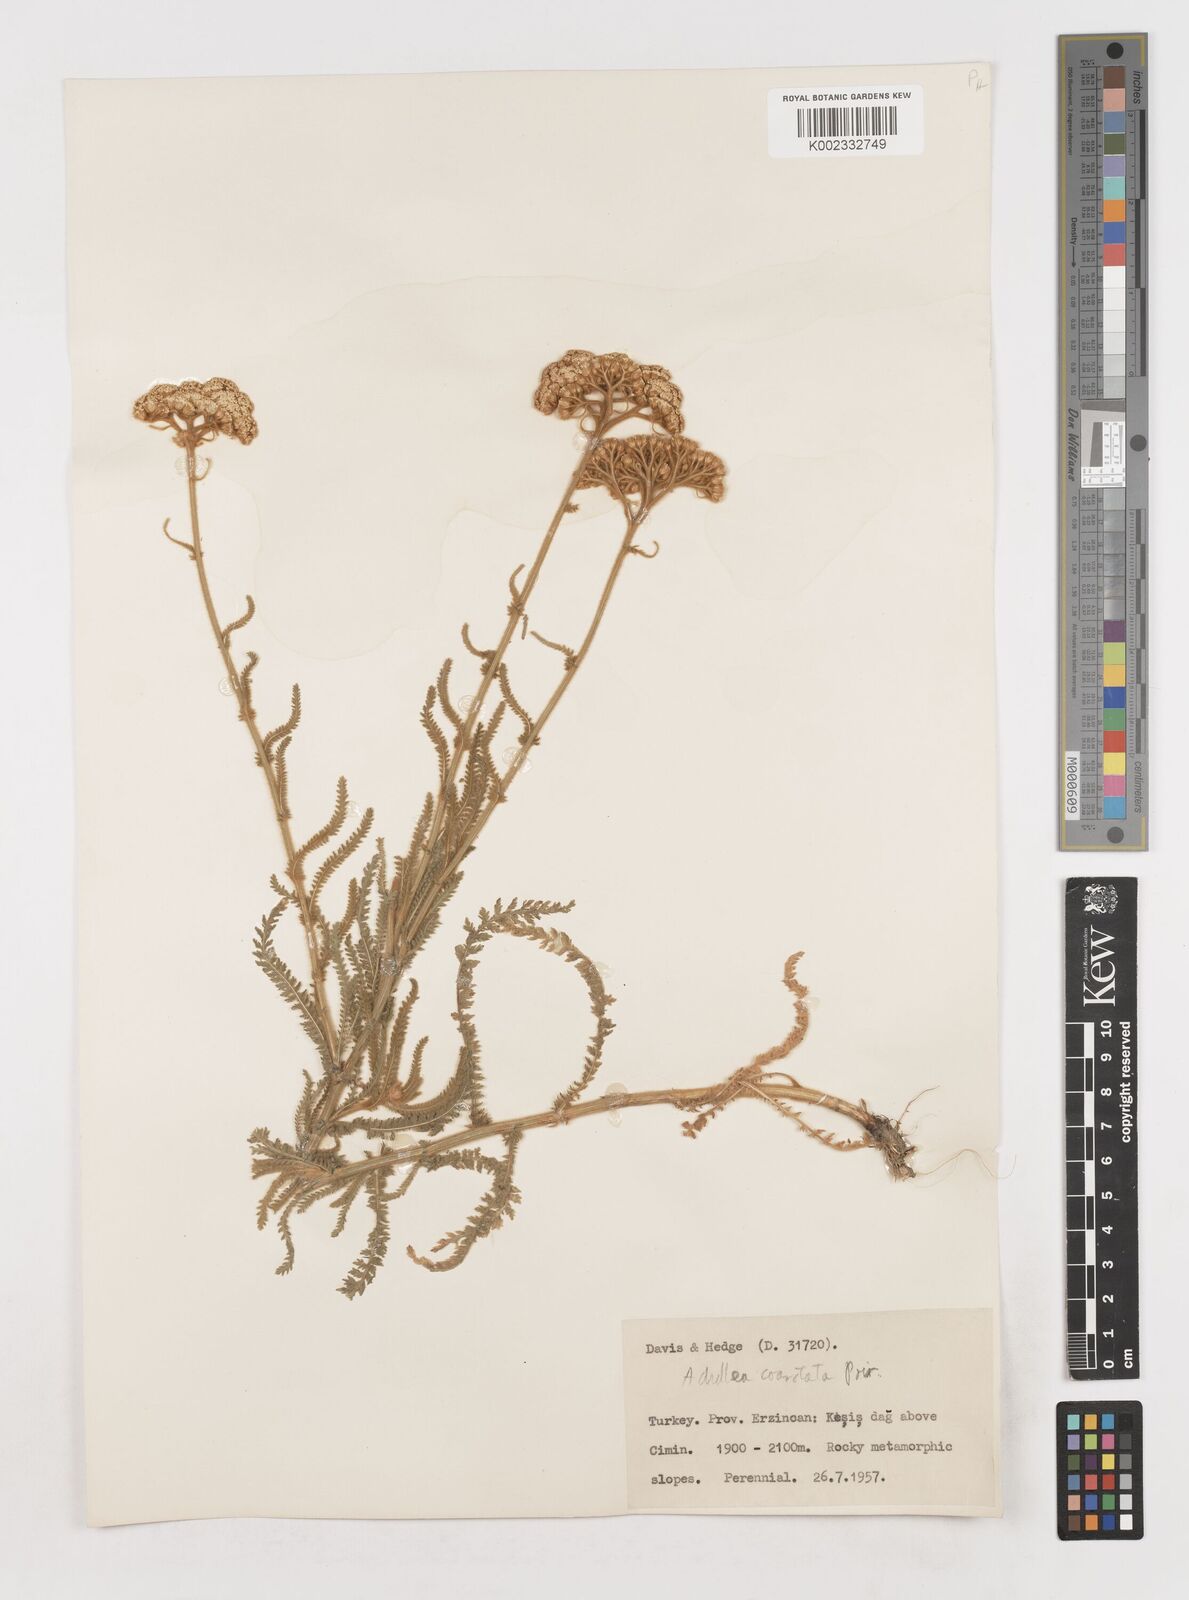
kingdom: Plantae
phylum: Tracheophyta
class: Magnoliopsida
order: Asterales
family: Asteraceae
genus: Achillea
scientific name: Achillea coarctata
